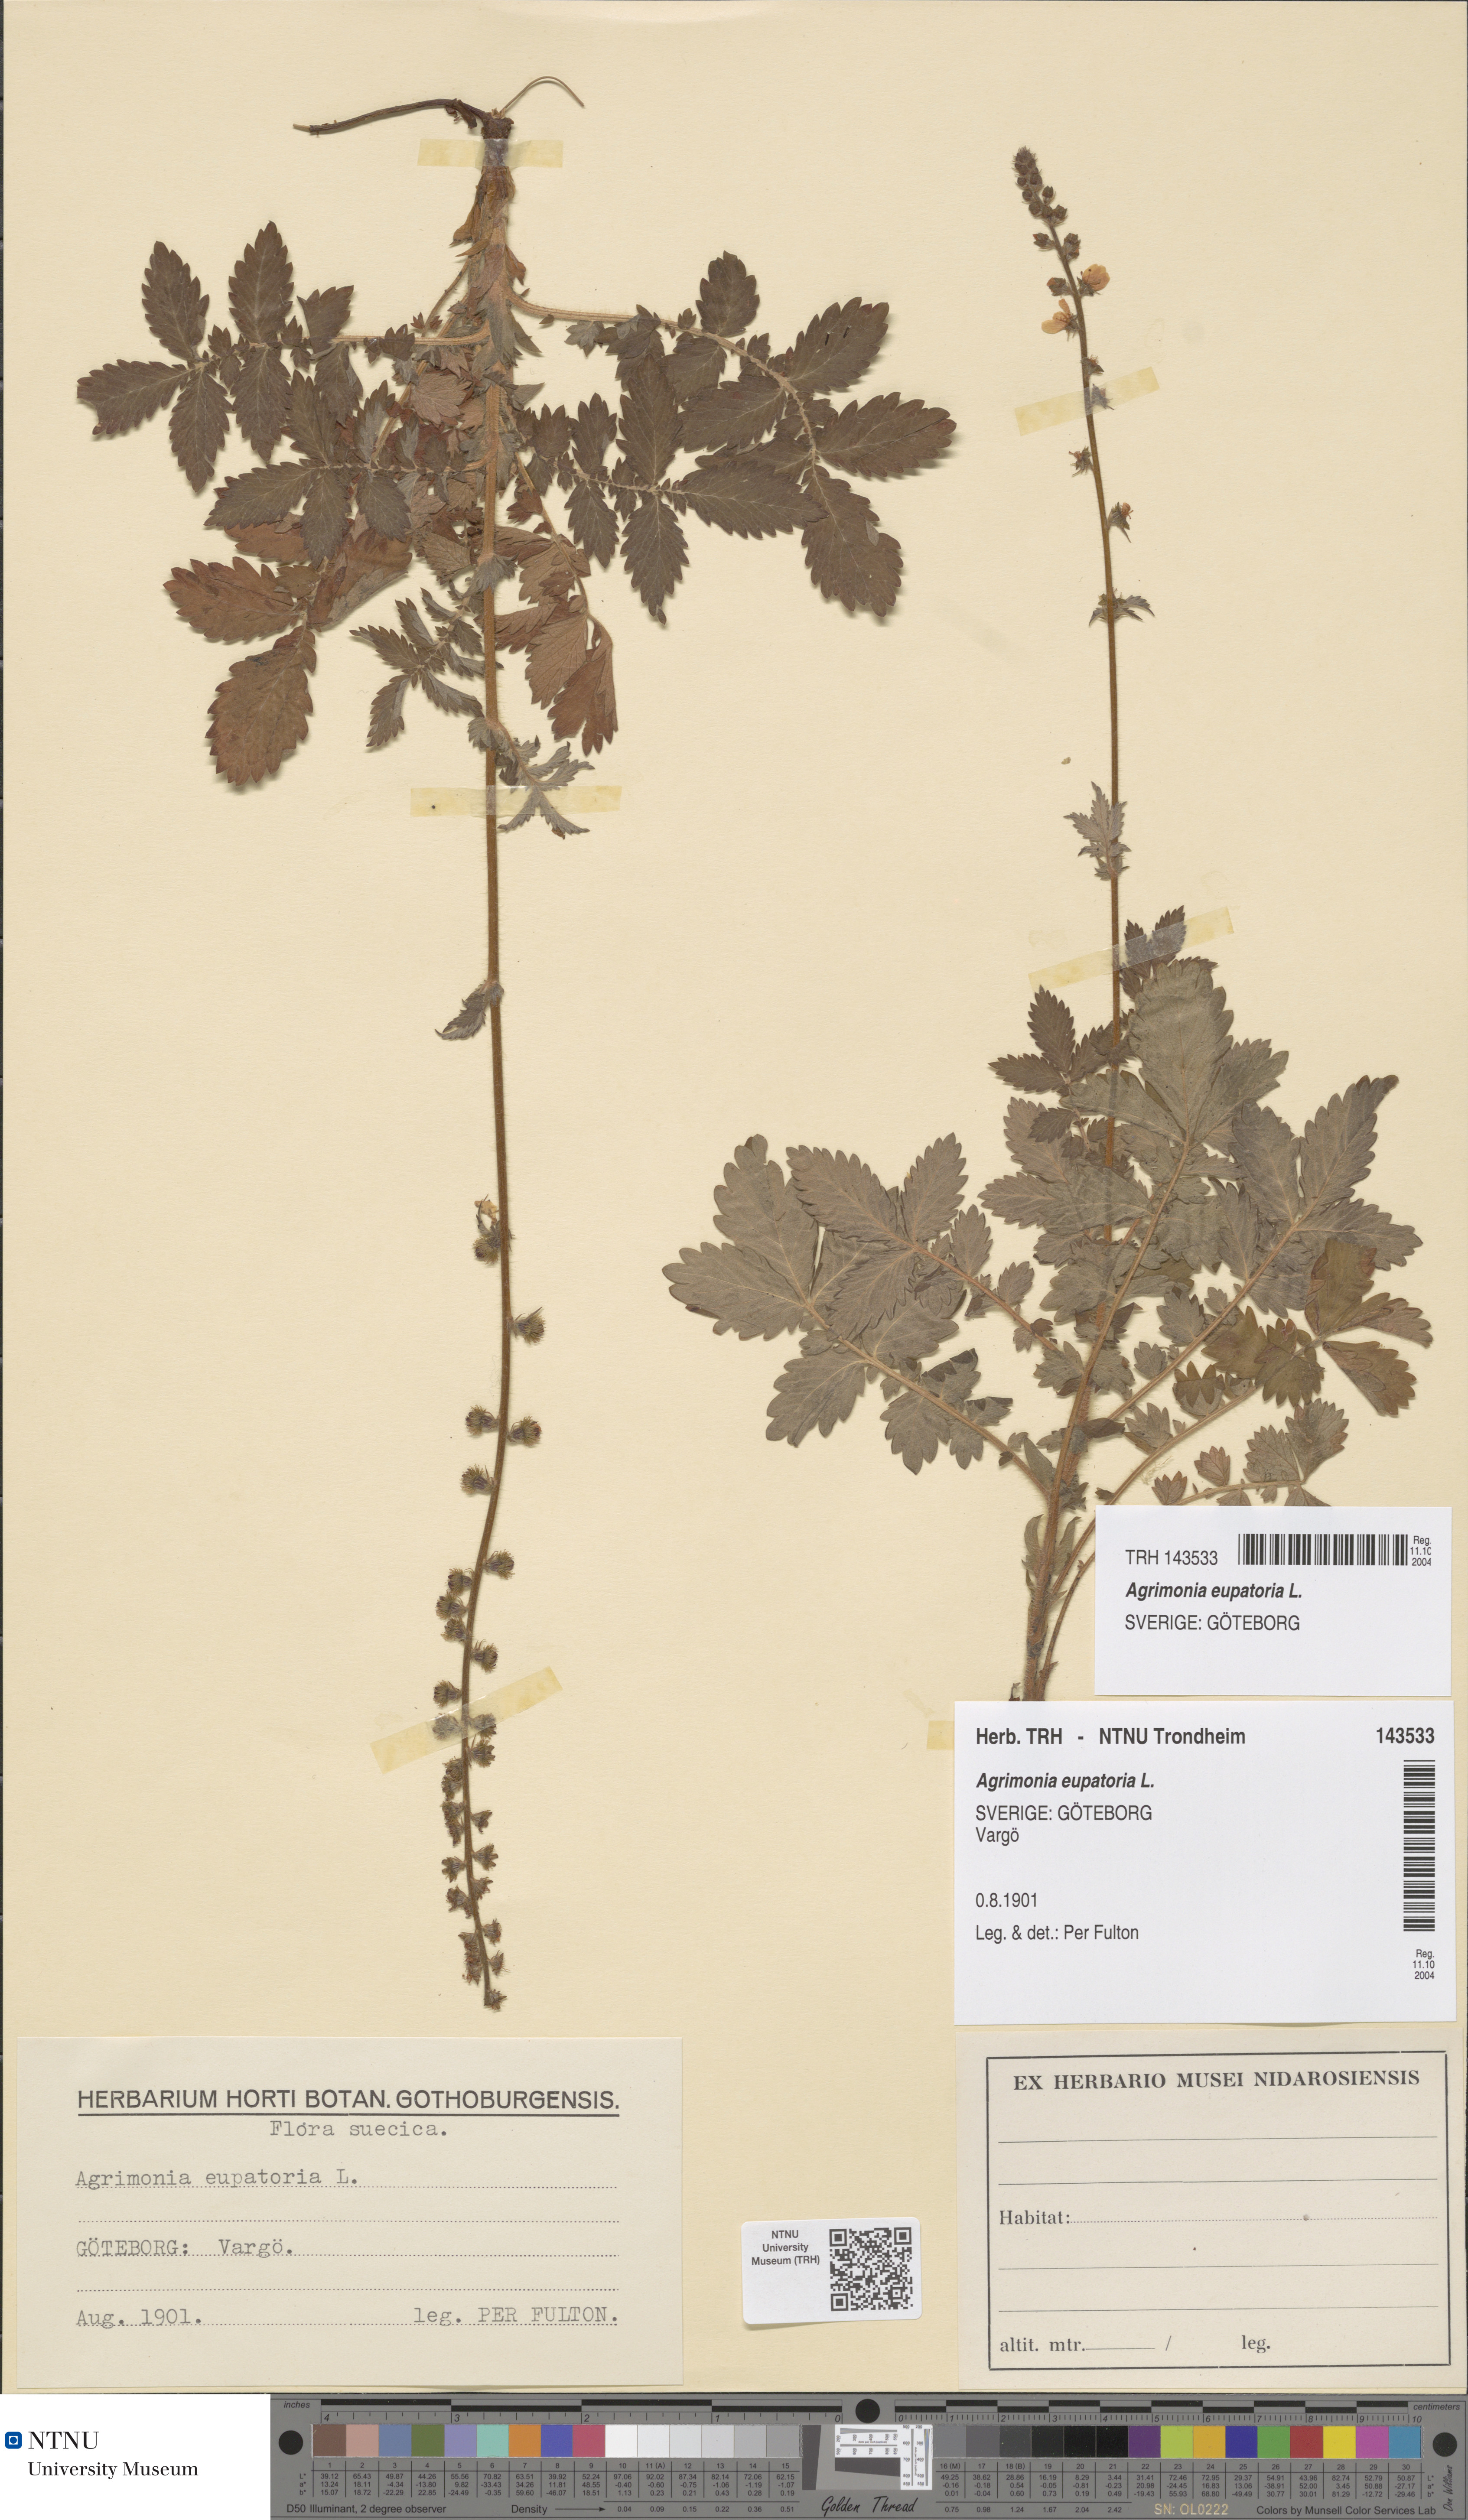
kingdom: Plantae
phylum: Tracheophyta
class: Magnoliopsida
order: Rosales
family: Rosaceae
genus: Agrimonia
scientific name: Agrimonia eupatoria
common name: Agrimony
